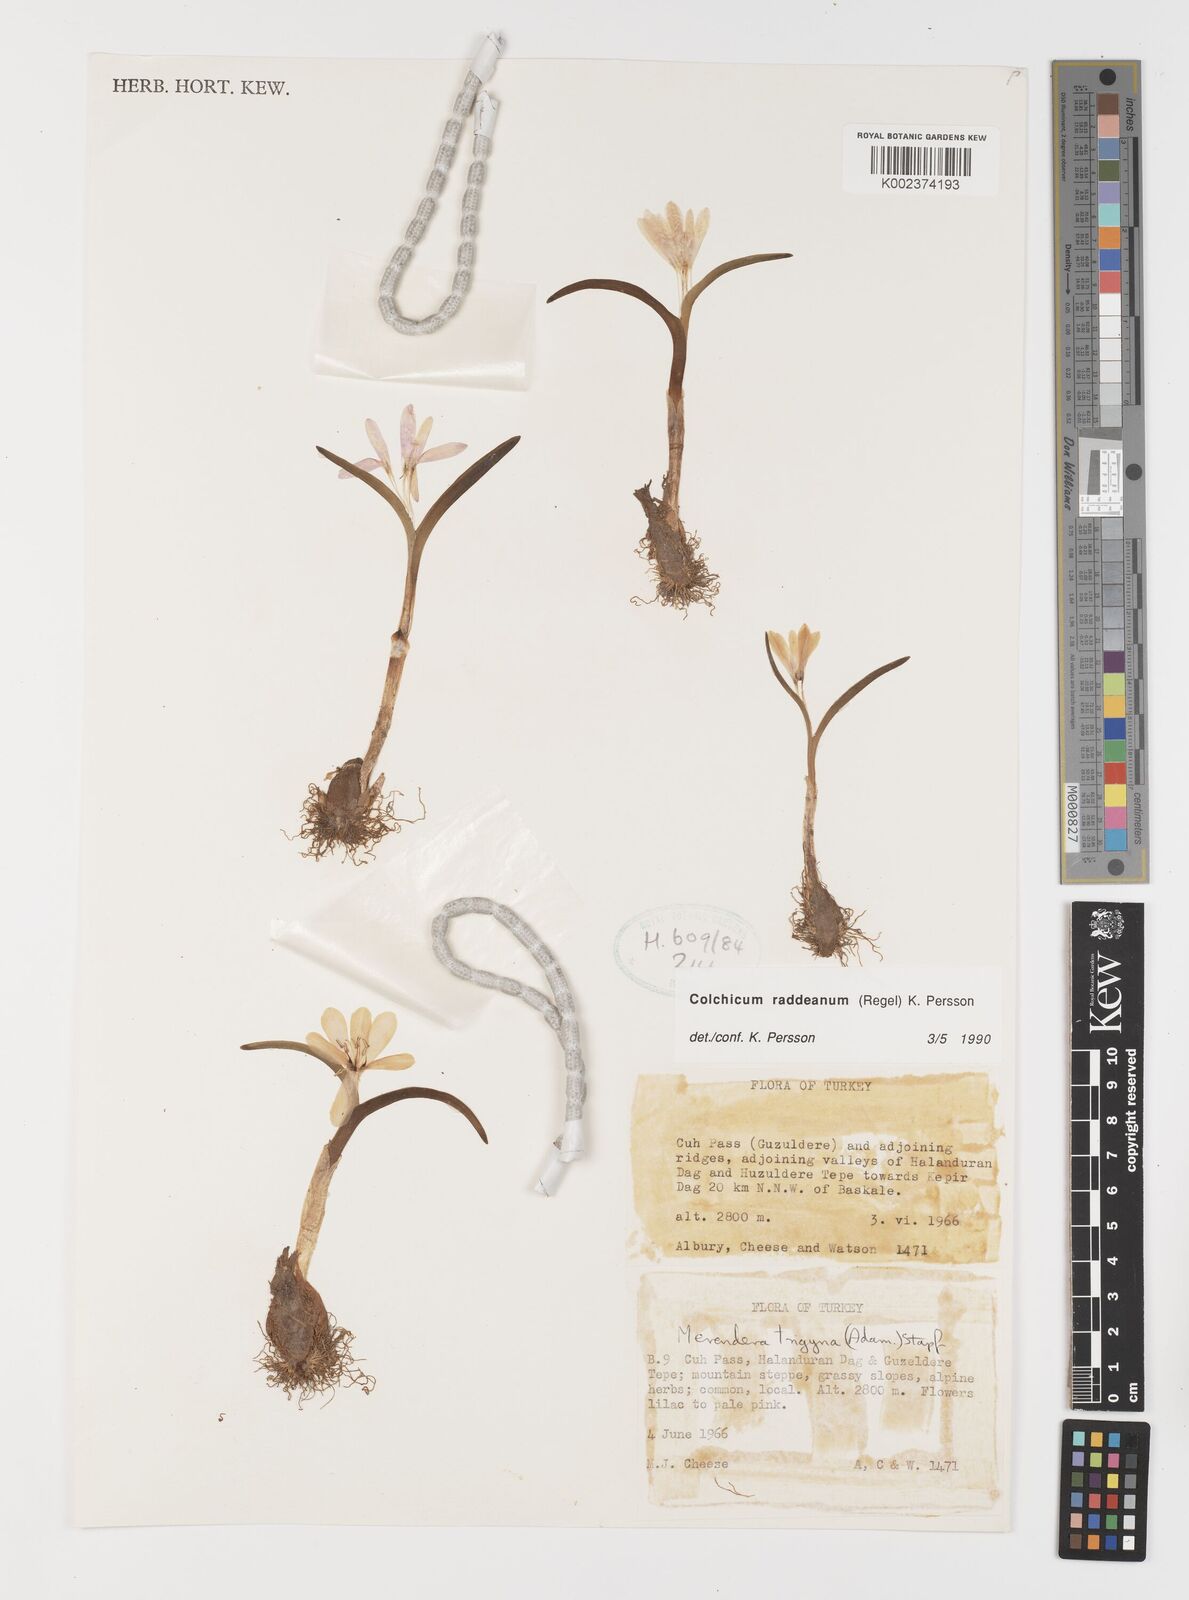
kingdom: Plantae
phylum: Tracheophyta
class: Liliopsida
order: Liliales
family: Colchicaceae
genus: Colchicum
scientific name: Colchicum raddeanum
